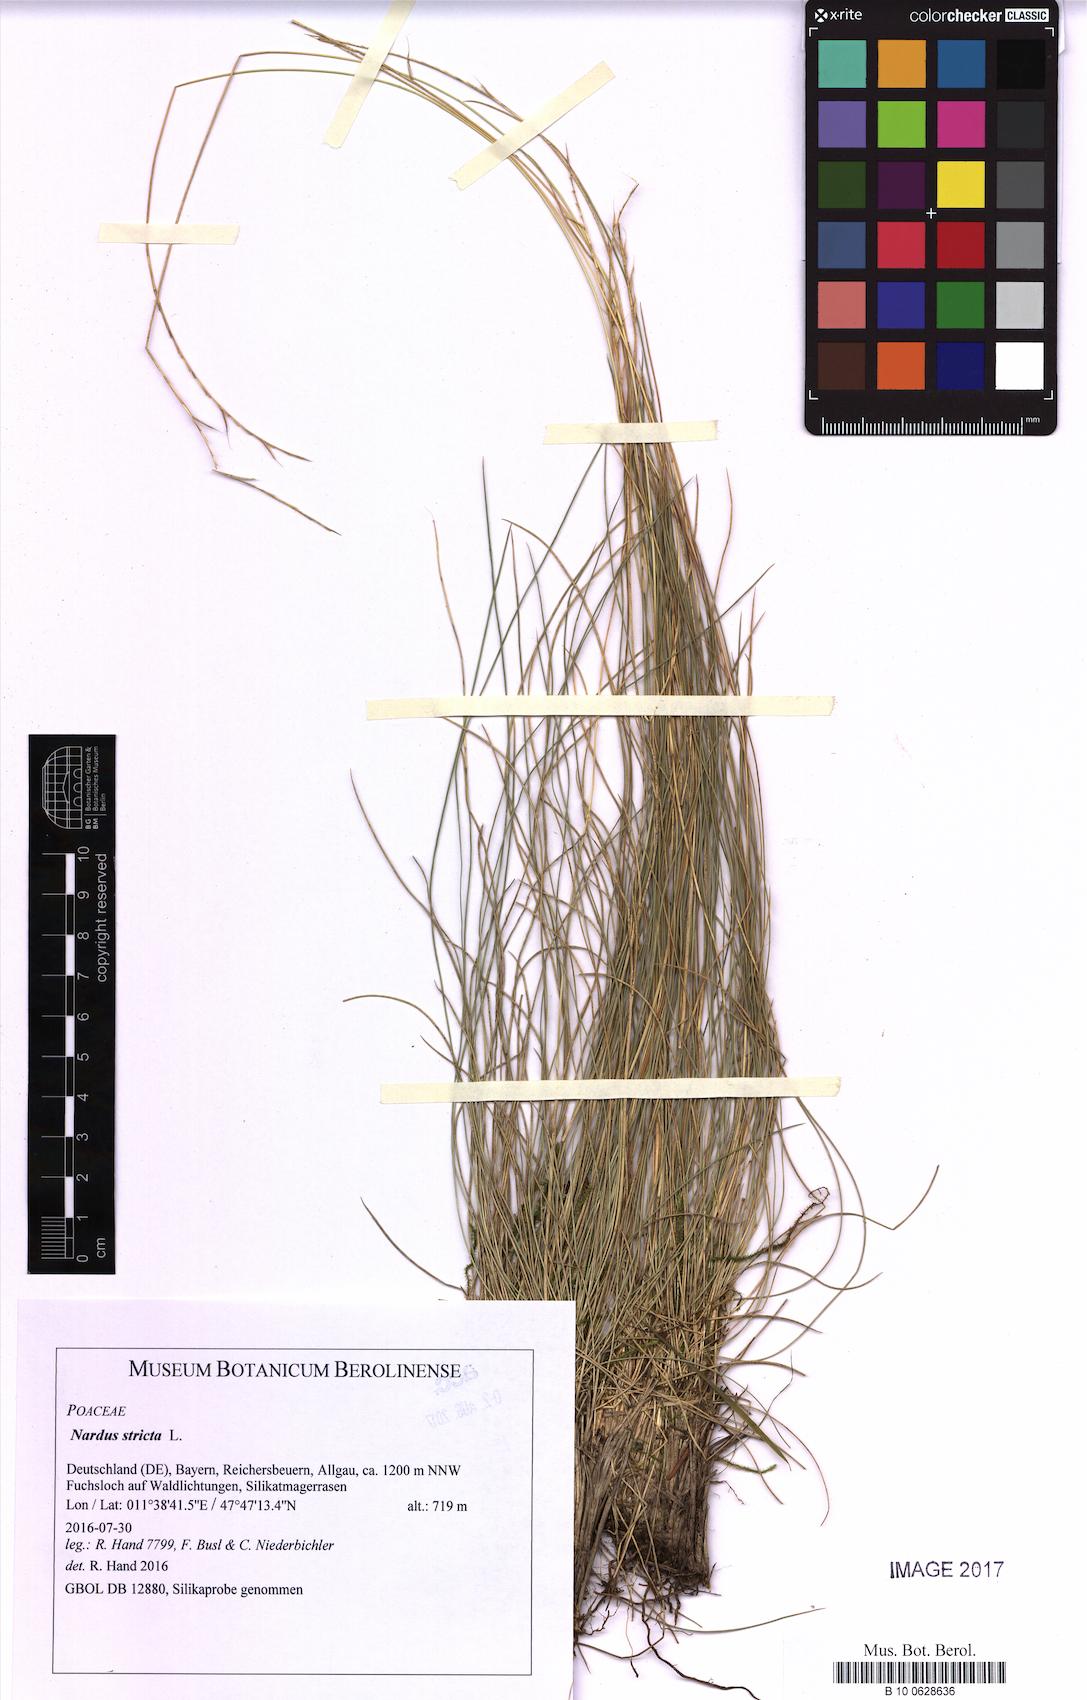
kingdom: Plantae
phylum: Tracheophyta
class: Liliopsida
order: Poales
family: Poaceae
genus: Nardus
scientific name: Nardus stricta
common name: Mat-grass
